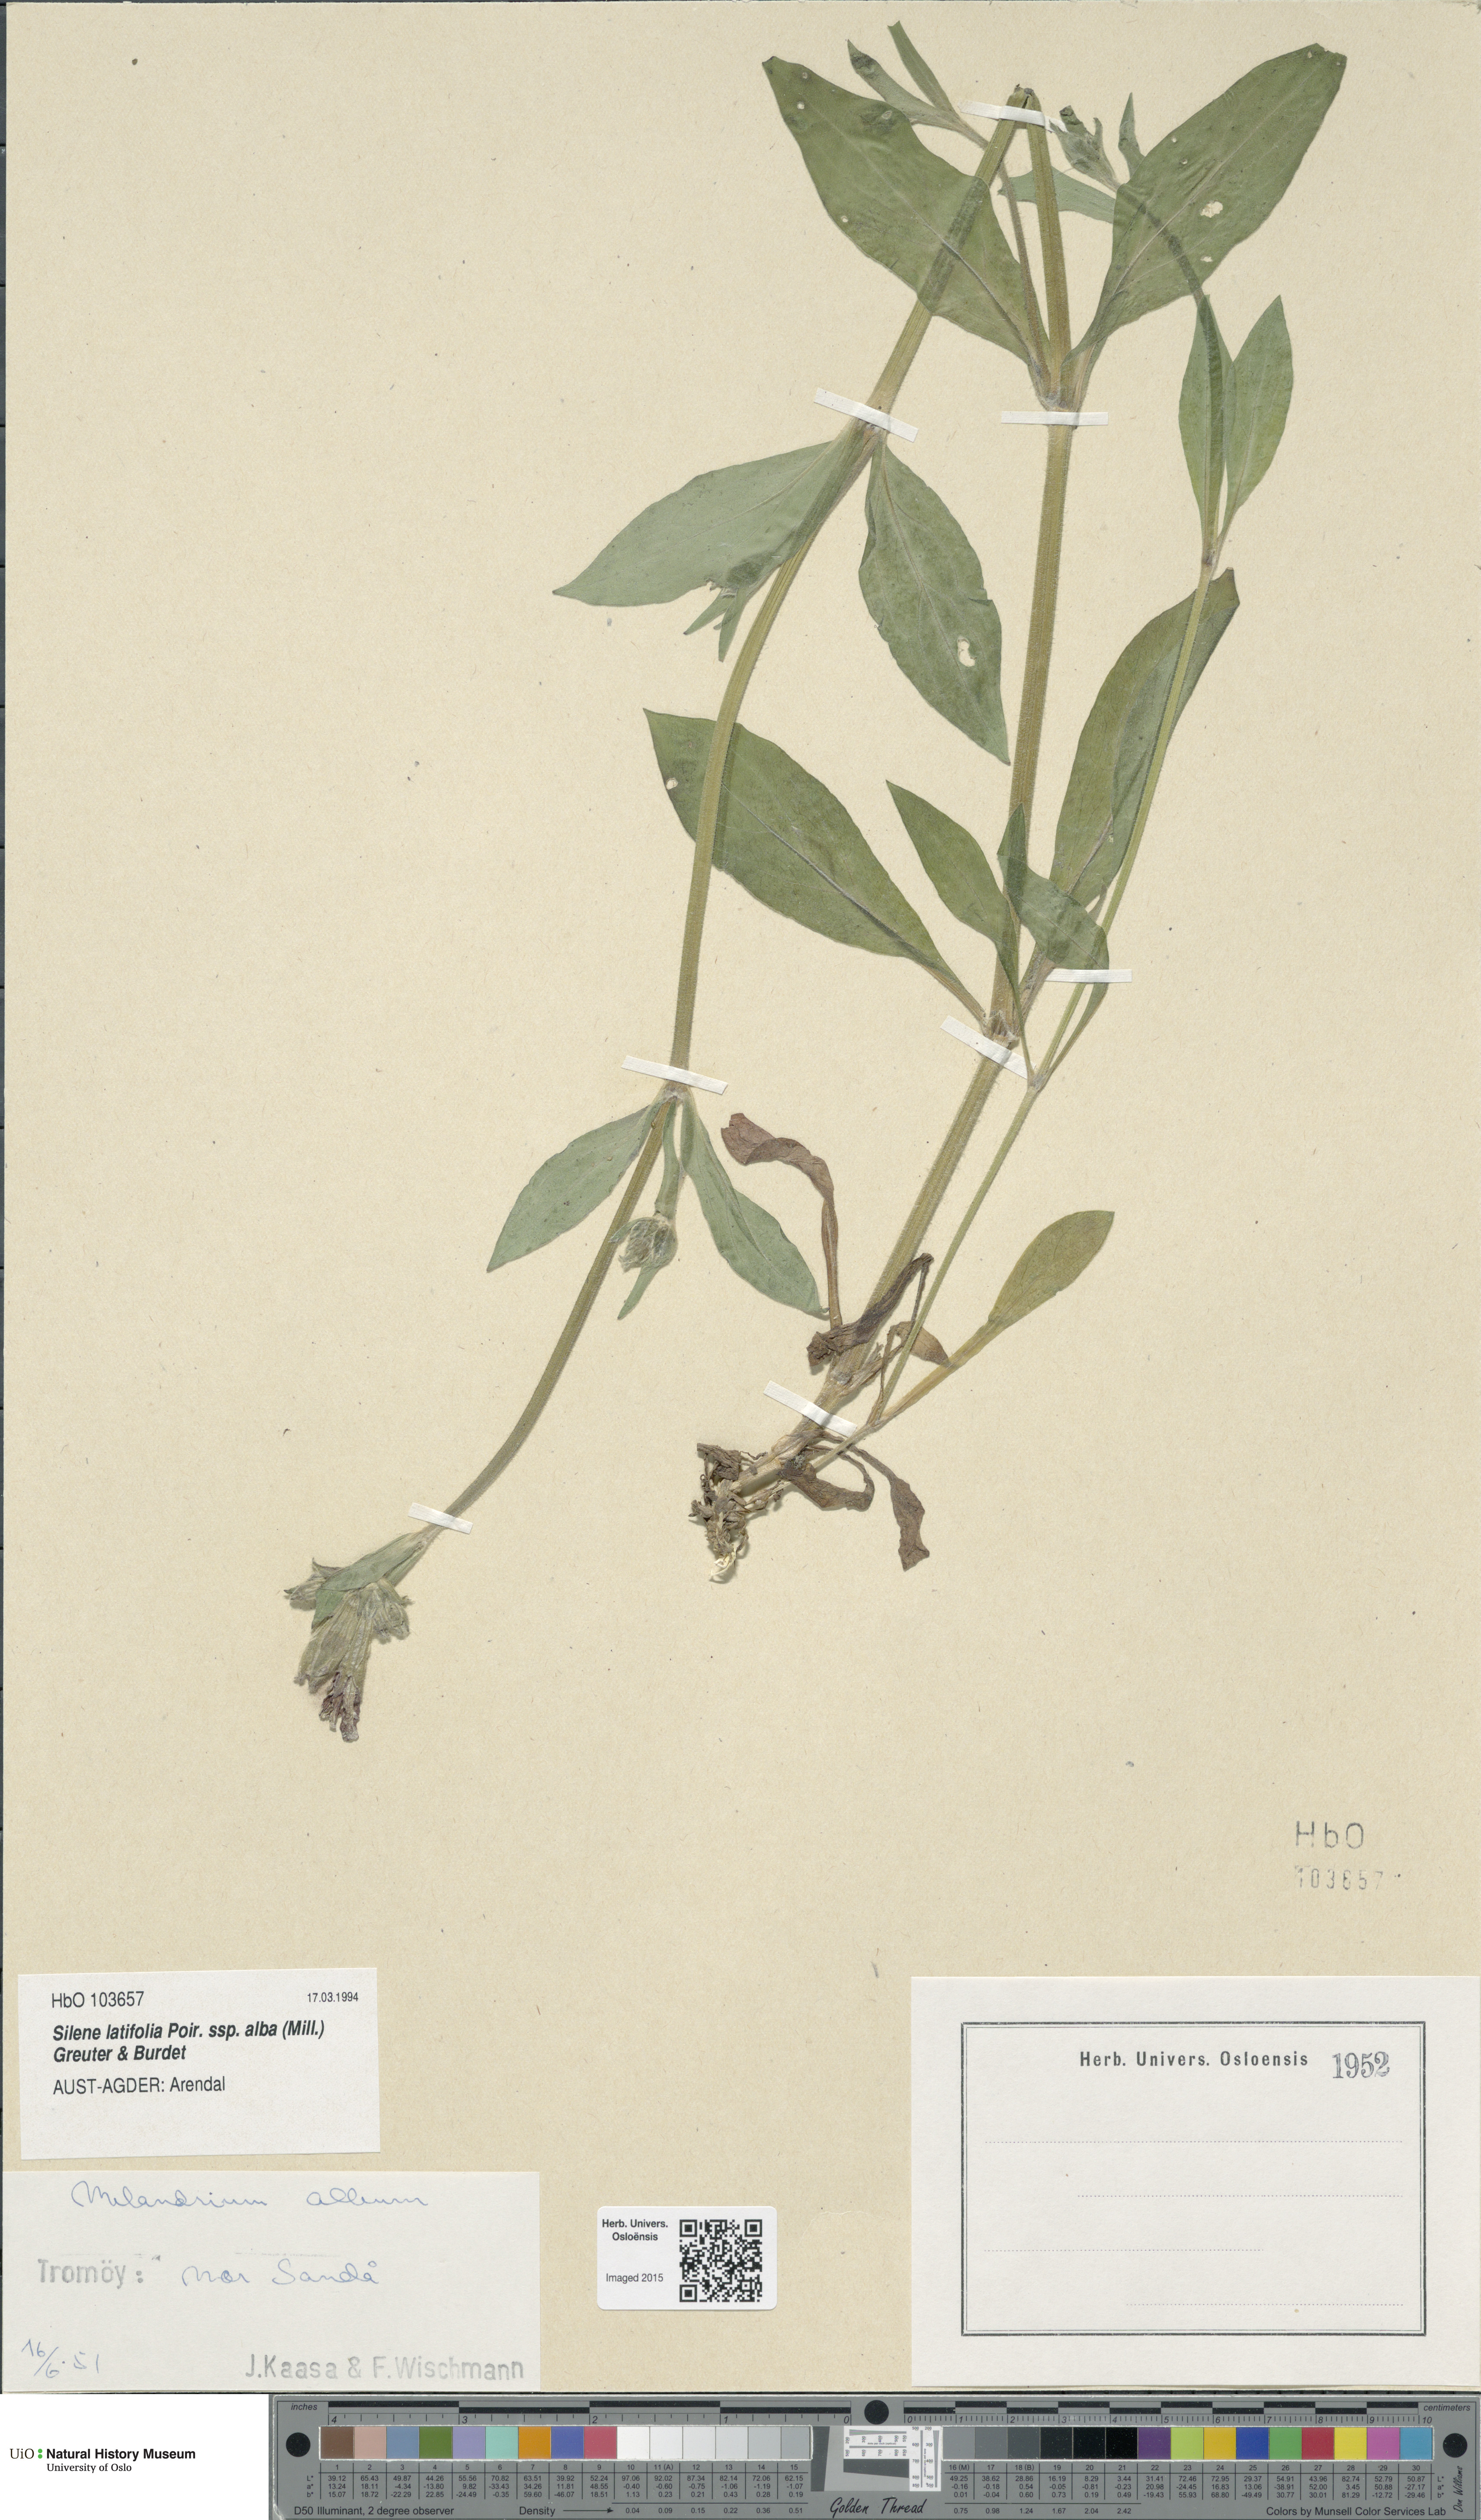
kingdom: Plantae
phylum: Tracheophyta
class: Magnoliopsida
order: Caryophyllales
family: Caryophyllaceae
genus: Silene
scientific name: Silene latifolia
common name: White campion
